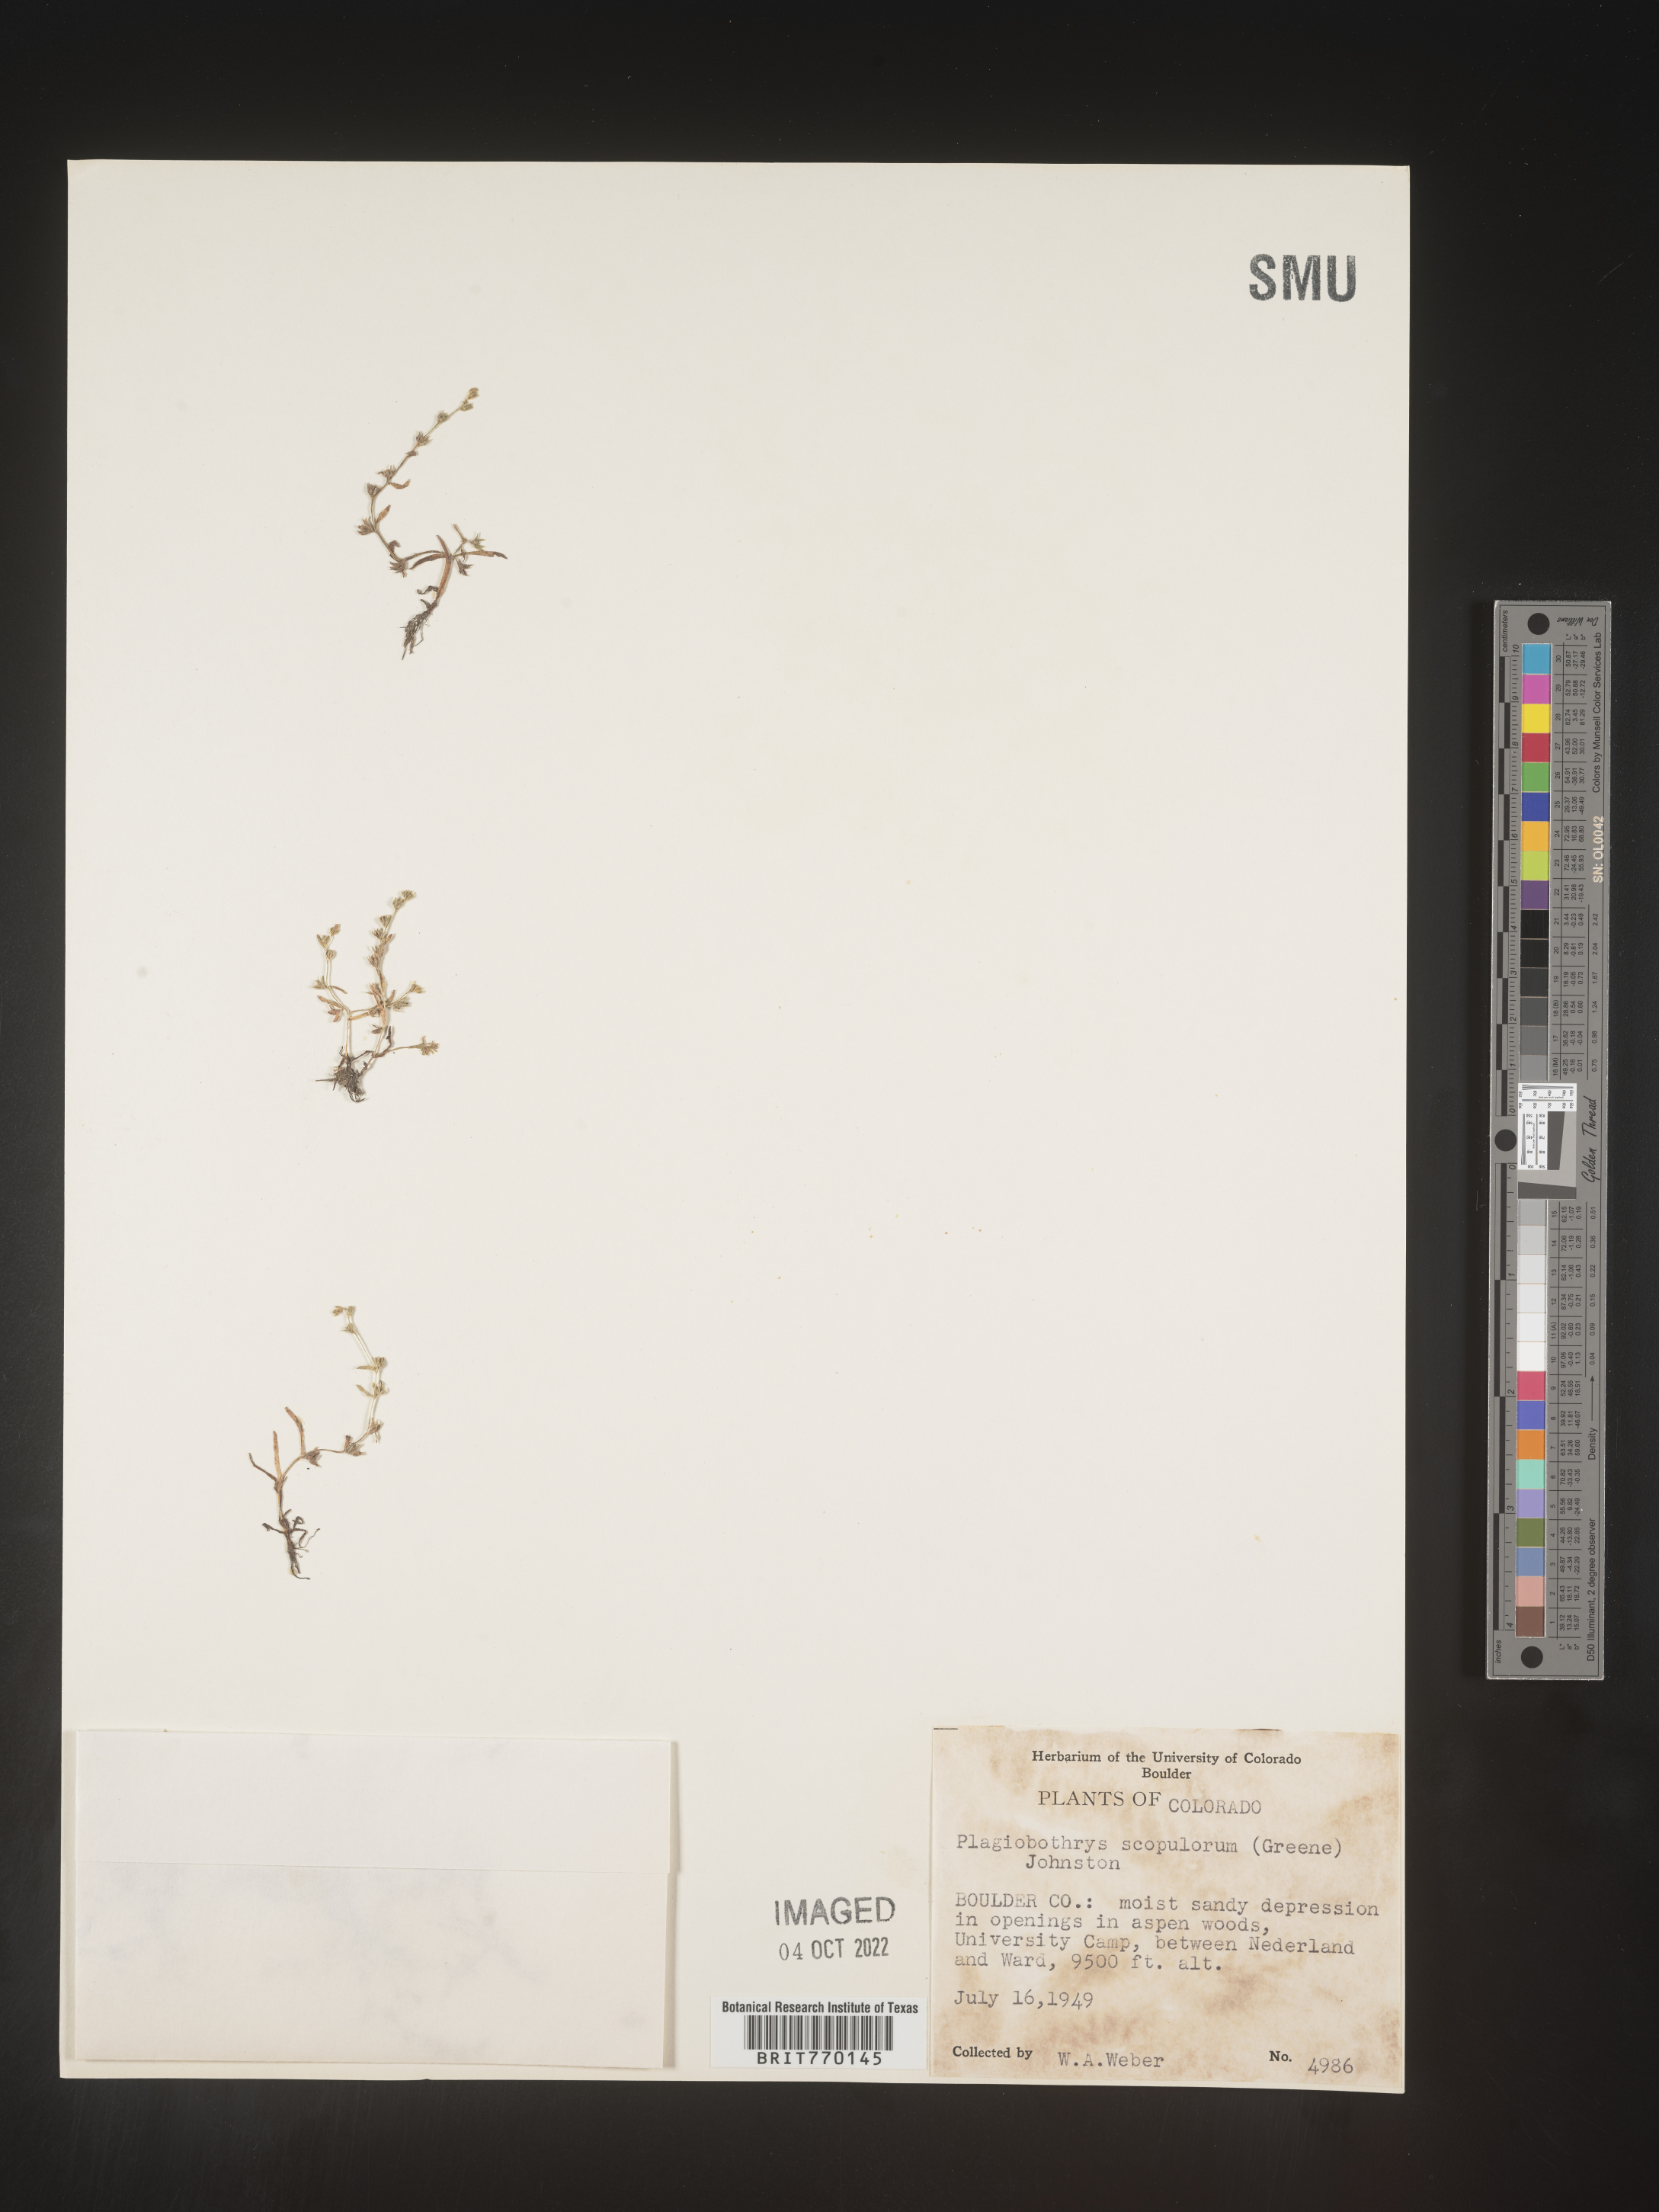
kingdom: Plantae
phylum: Tracheophyta
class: Magnoliopsida
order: Boraginales
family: Boraginaceae
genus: Plagiobothrys
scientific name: Plagiobothrys
